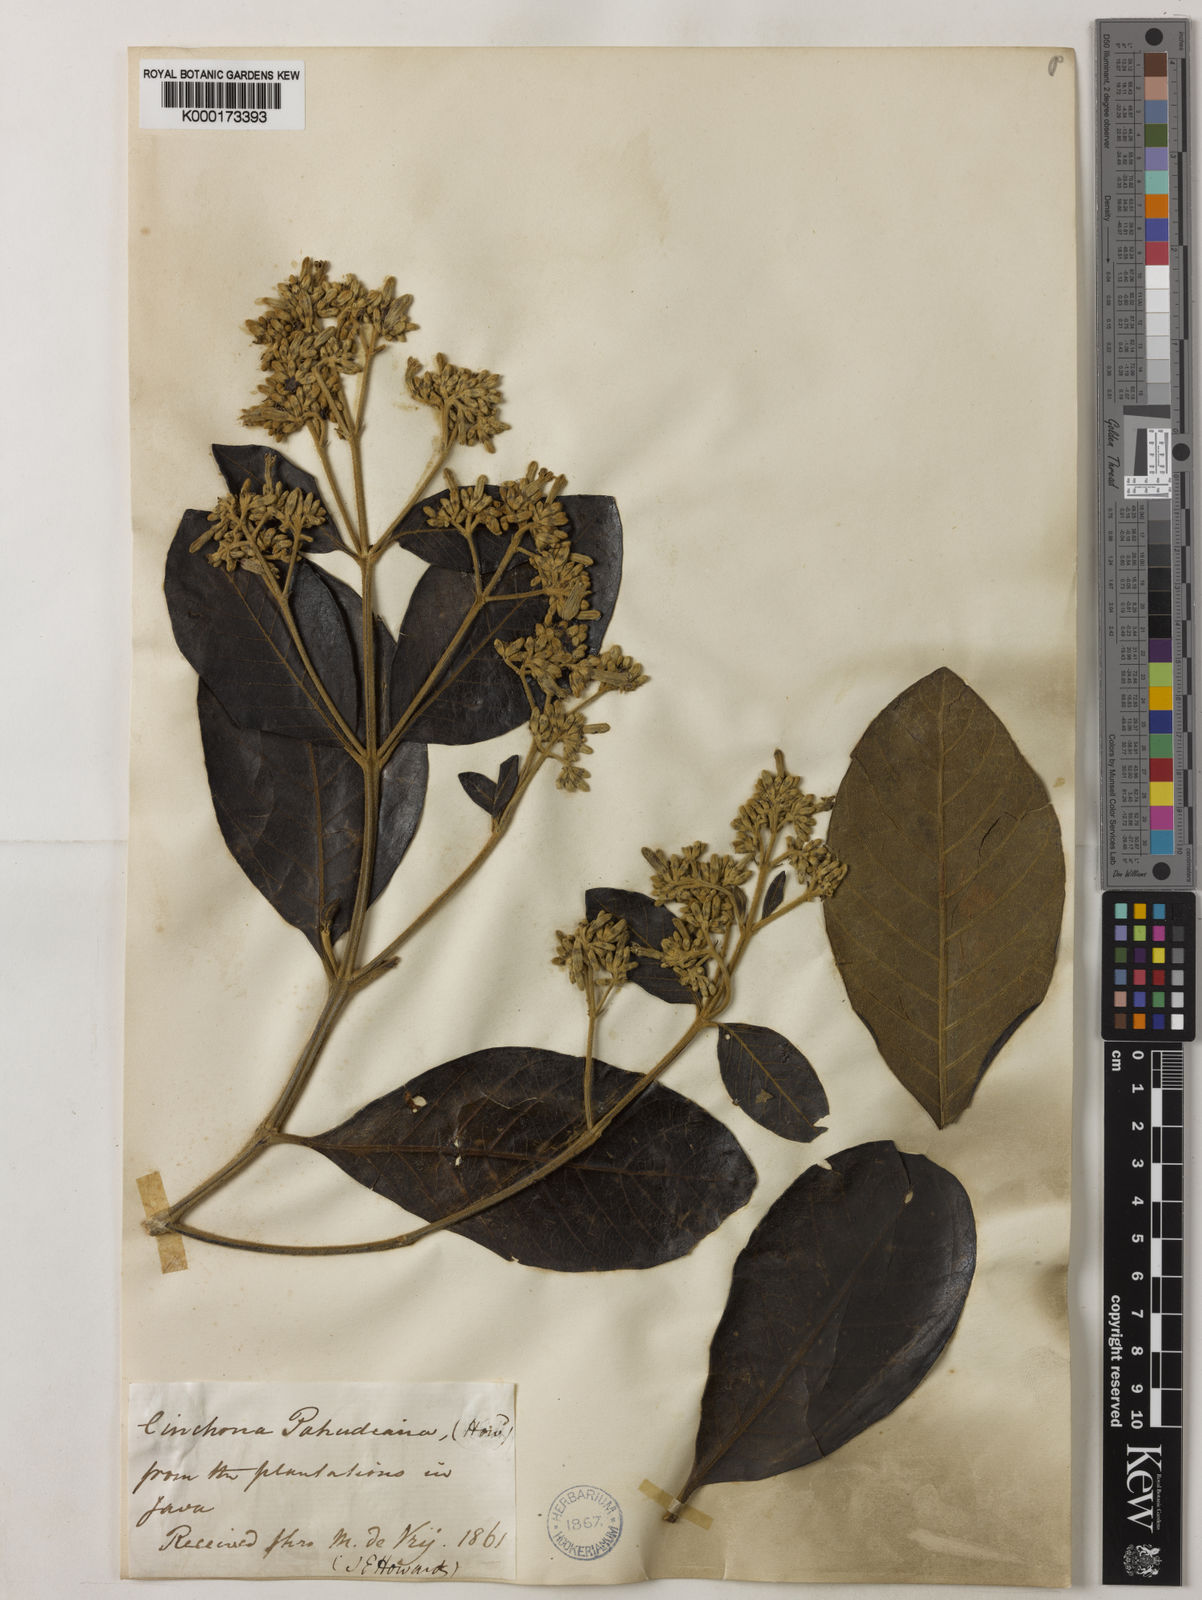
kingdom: Plantae
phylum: Tracheophyta
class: Magnoliopsida
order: Gentianales
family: Rubiaceae
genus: Cinchona
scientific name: Cinchona calisaya
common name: Ledgerbark
